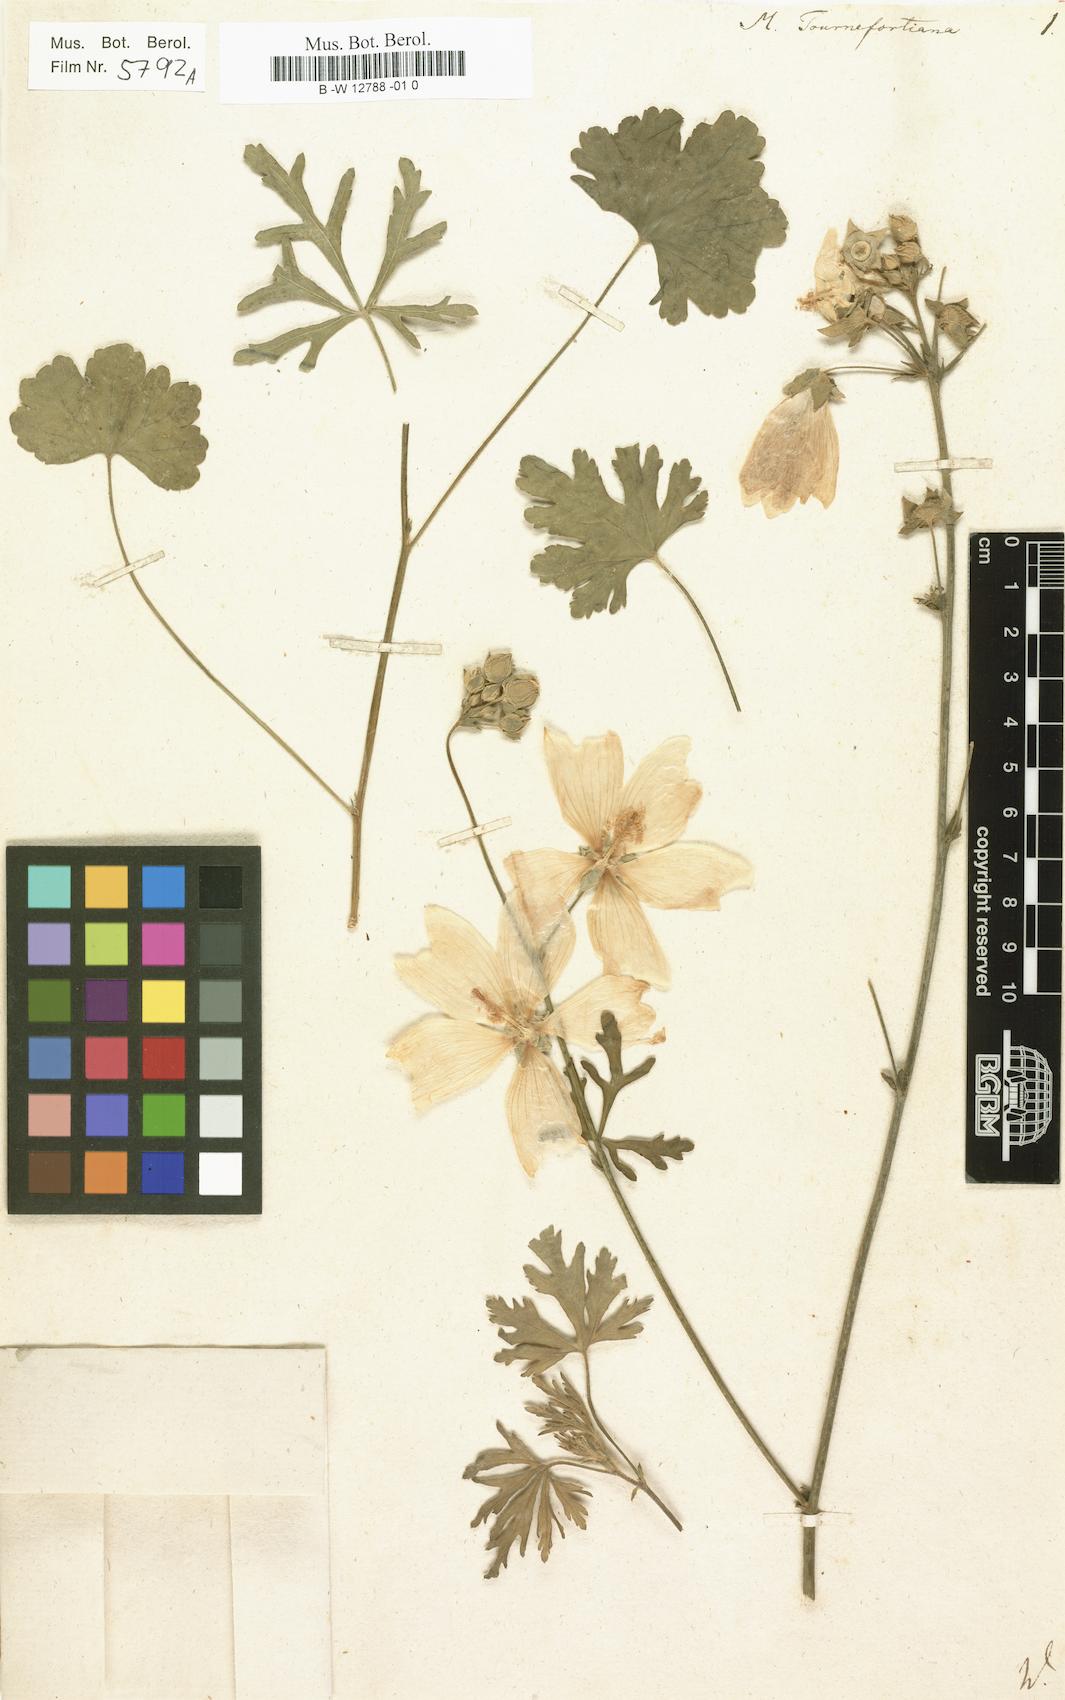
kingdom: Plantae
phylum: Tracheophyta
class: Magnoliopsida
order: Malvales
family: Malvaceae
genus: Malva
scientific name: Malva tournefortiana
